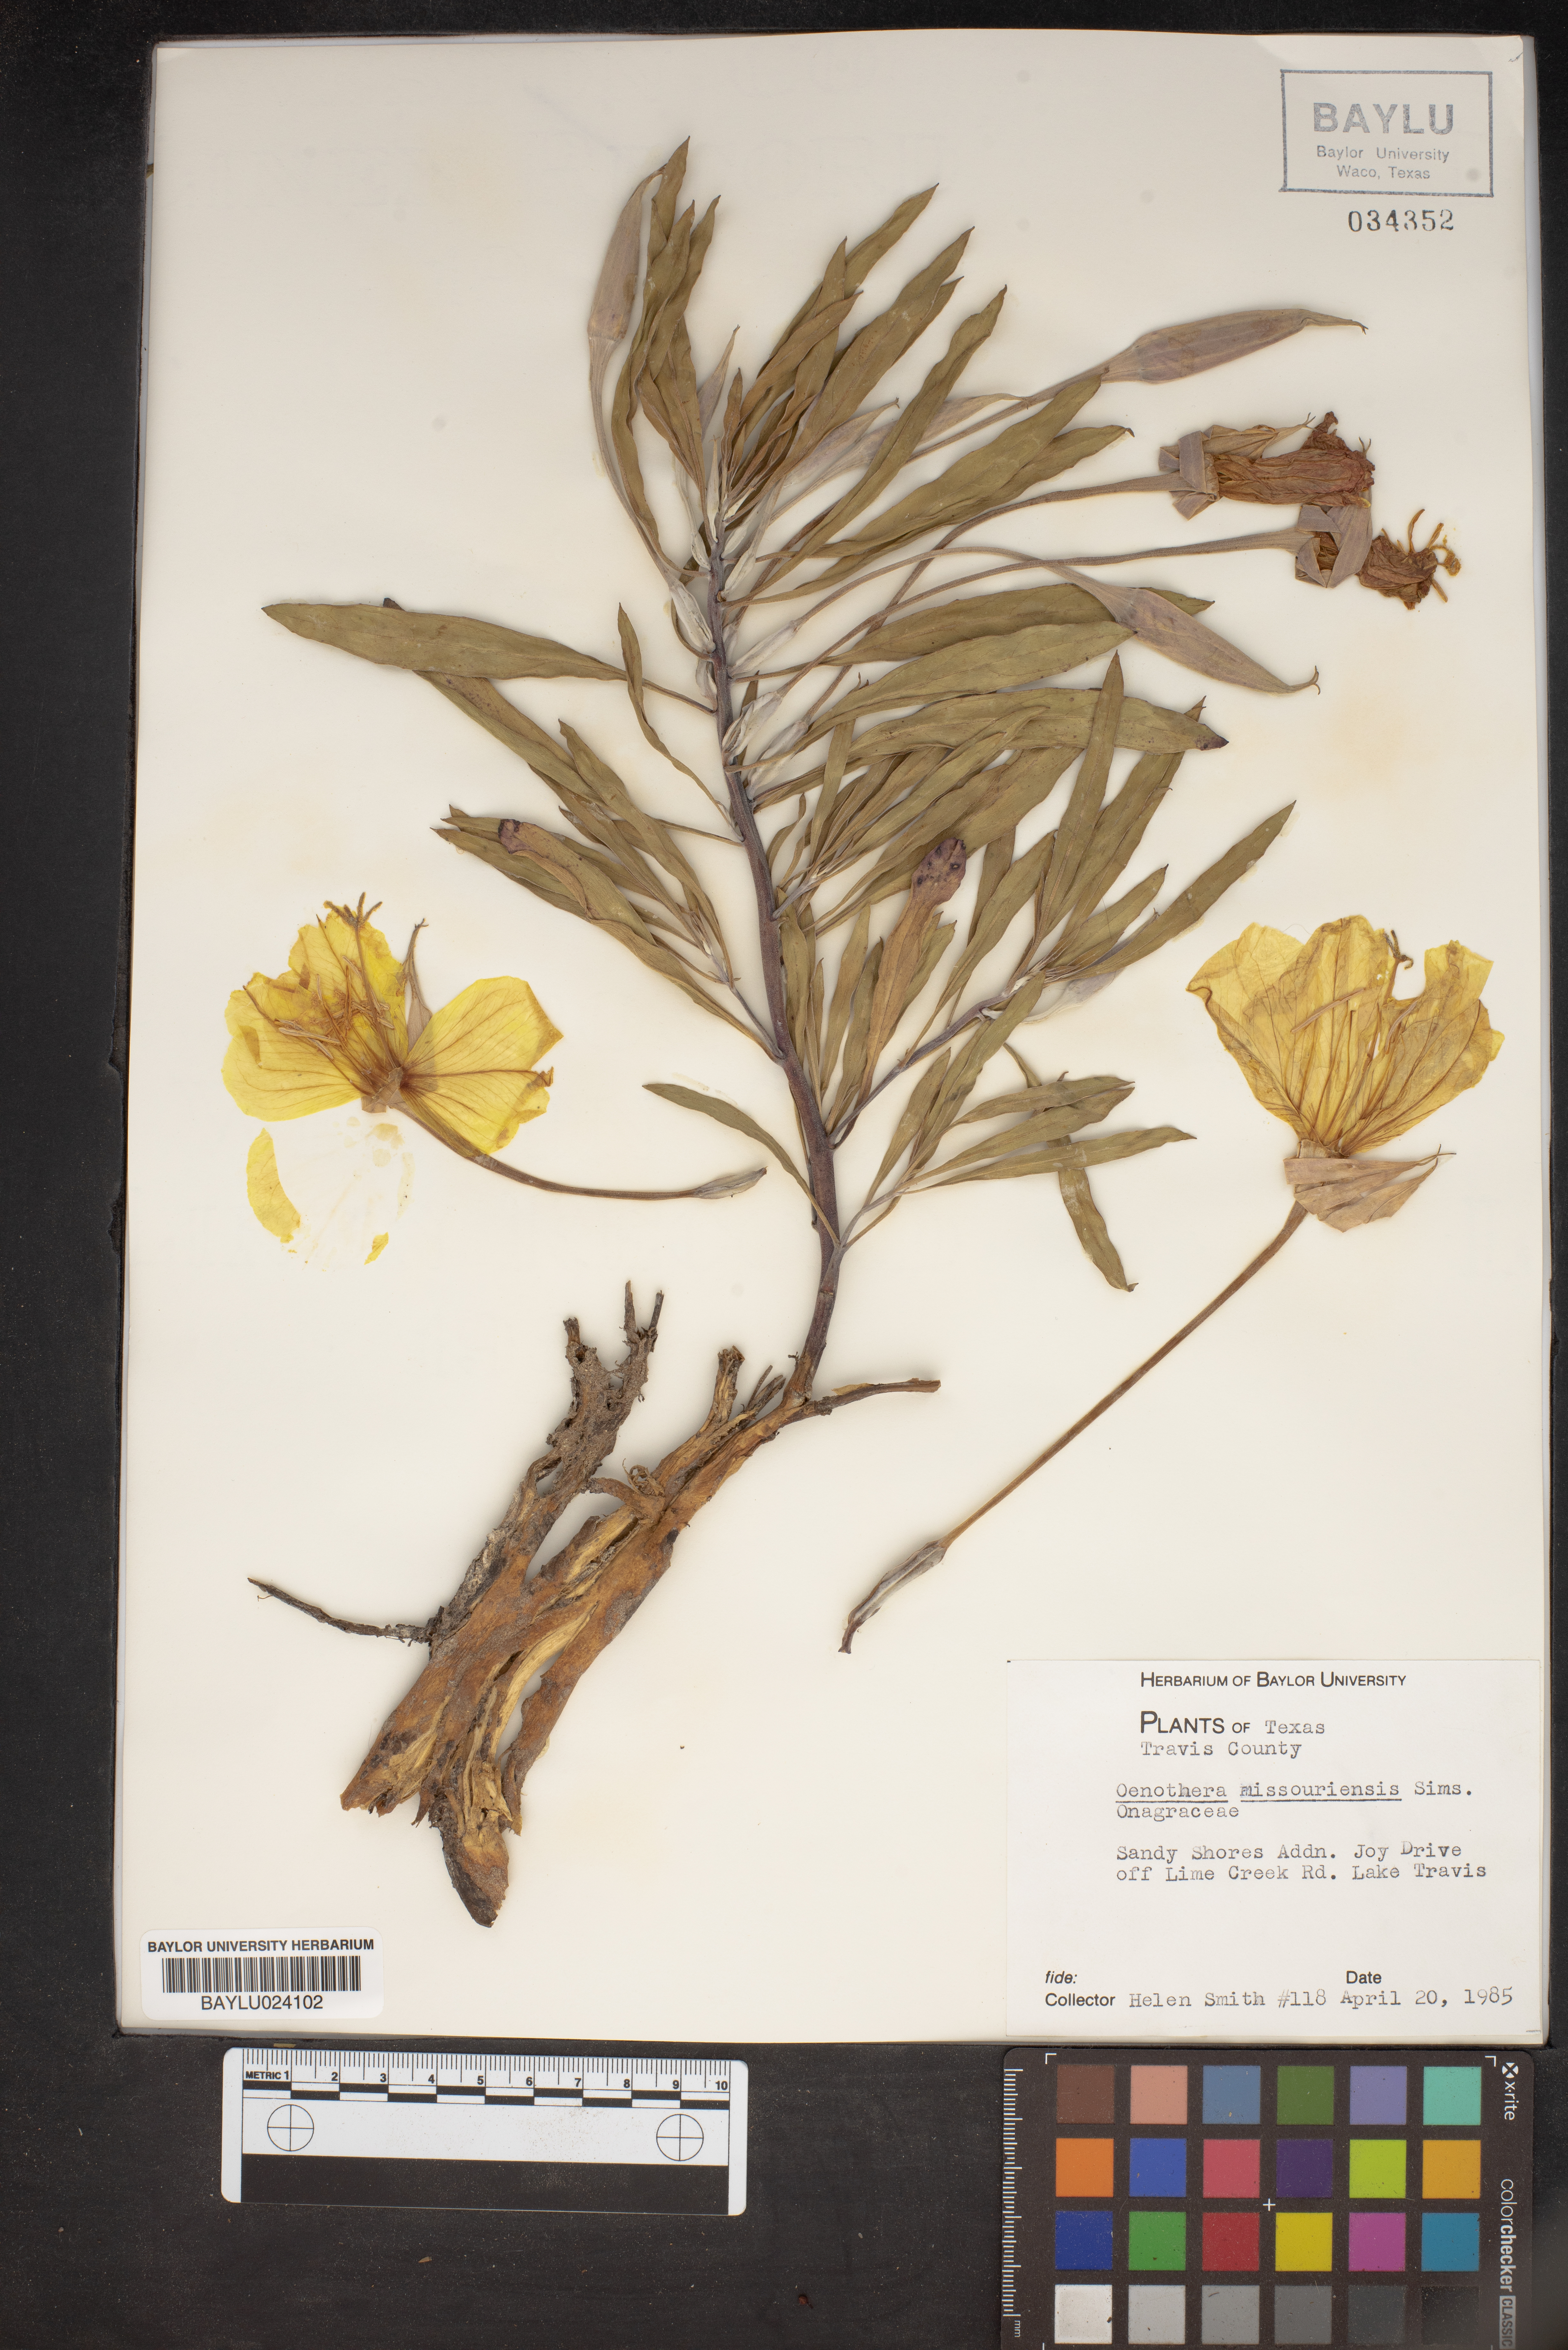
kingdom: Plantae
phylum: Tracheophyta
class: Magnoliopsida
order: Myrtales
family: Onagraceae
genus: Oenothera
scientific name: Oenothera macrocarpa
